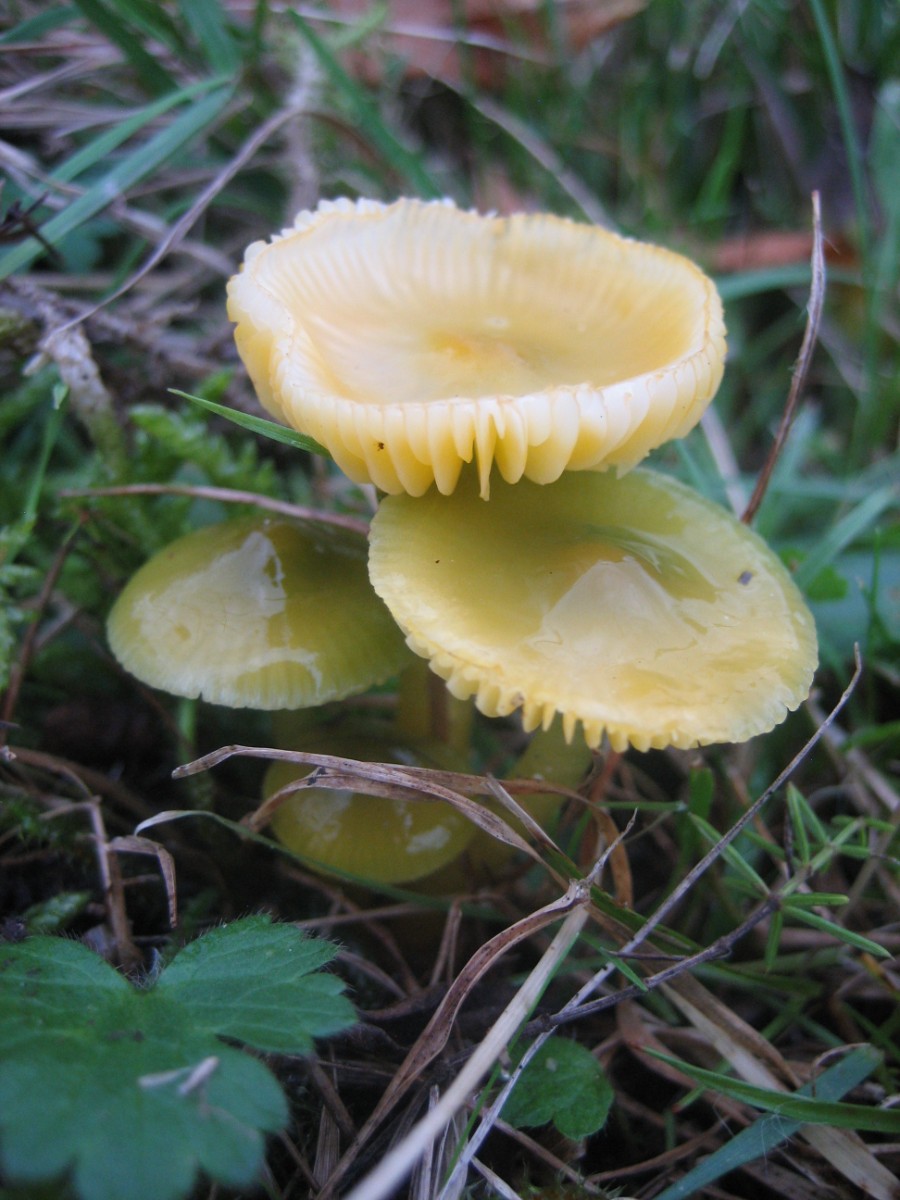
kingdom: Fungi
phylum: Basidiomycota
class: Agaricomycetes
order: Agaricales
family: Hygrophoraceae
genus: Gliophorus
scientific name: Gliophorus psittacinus
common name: papegøje-vokshat
